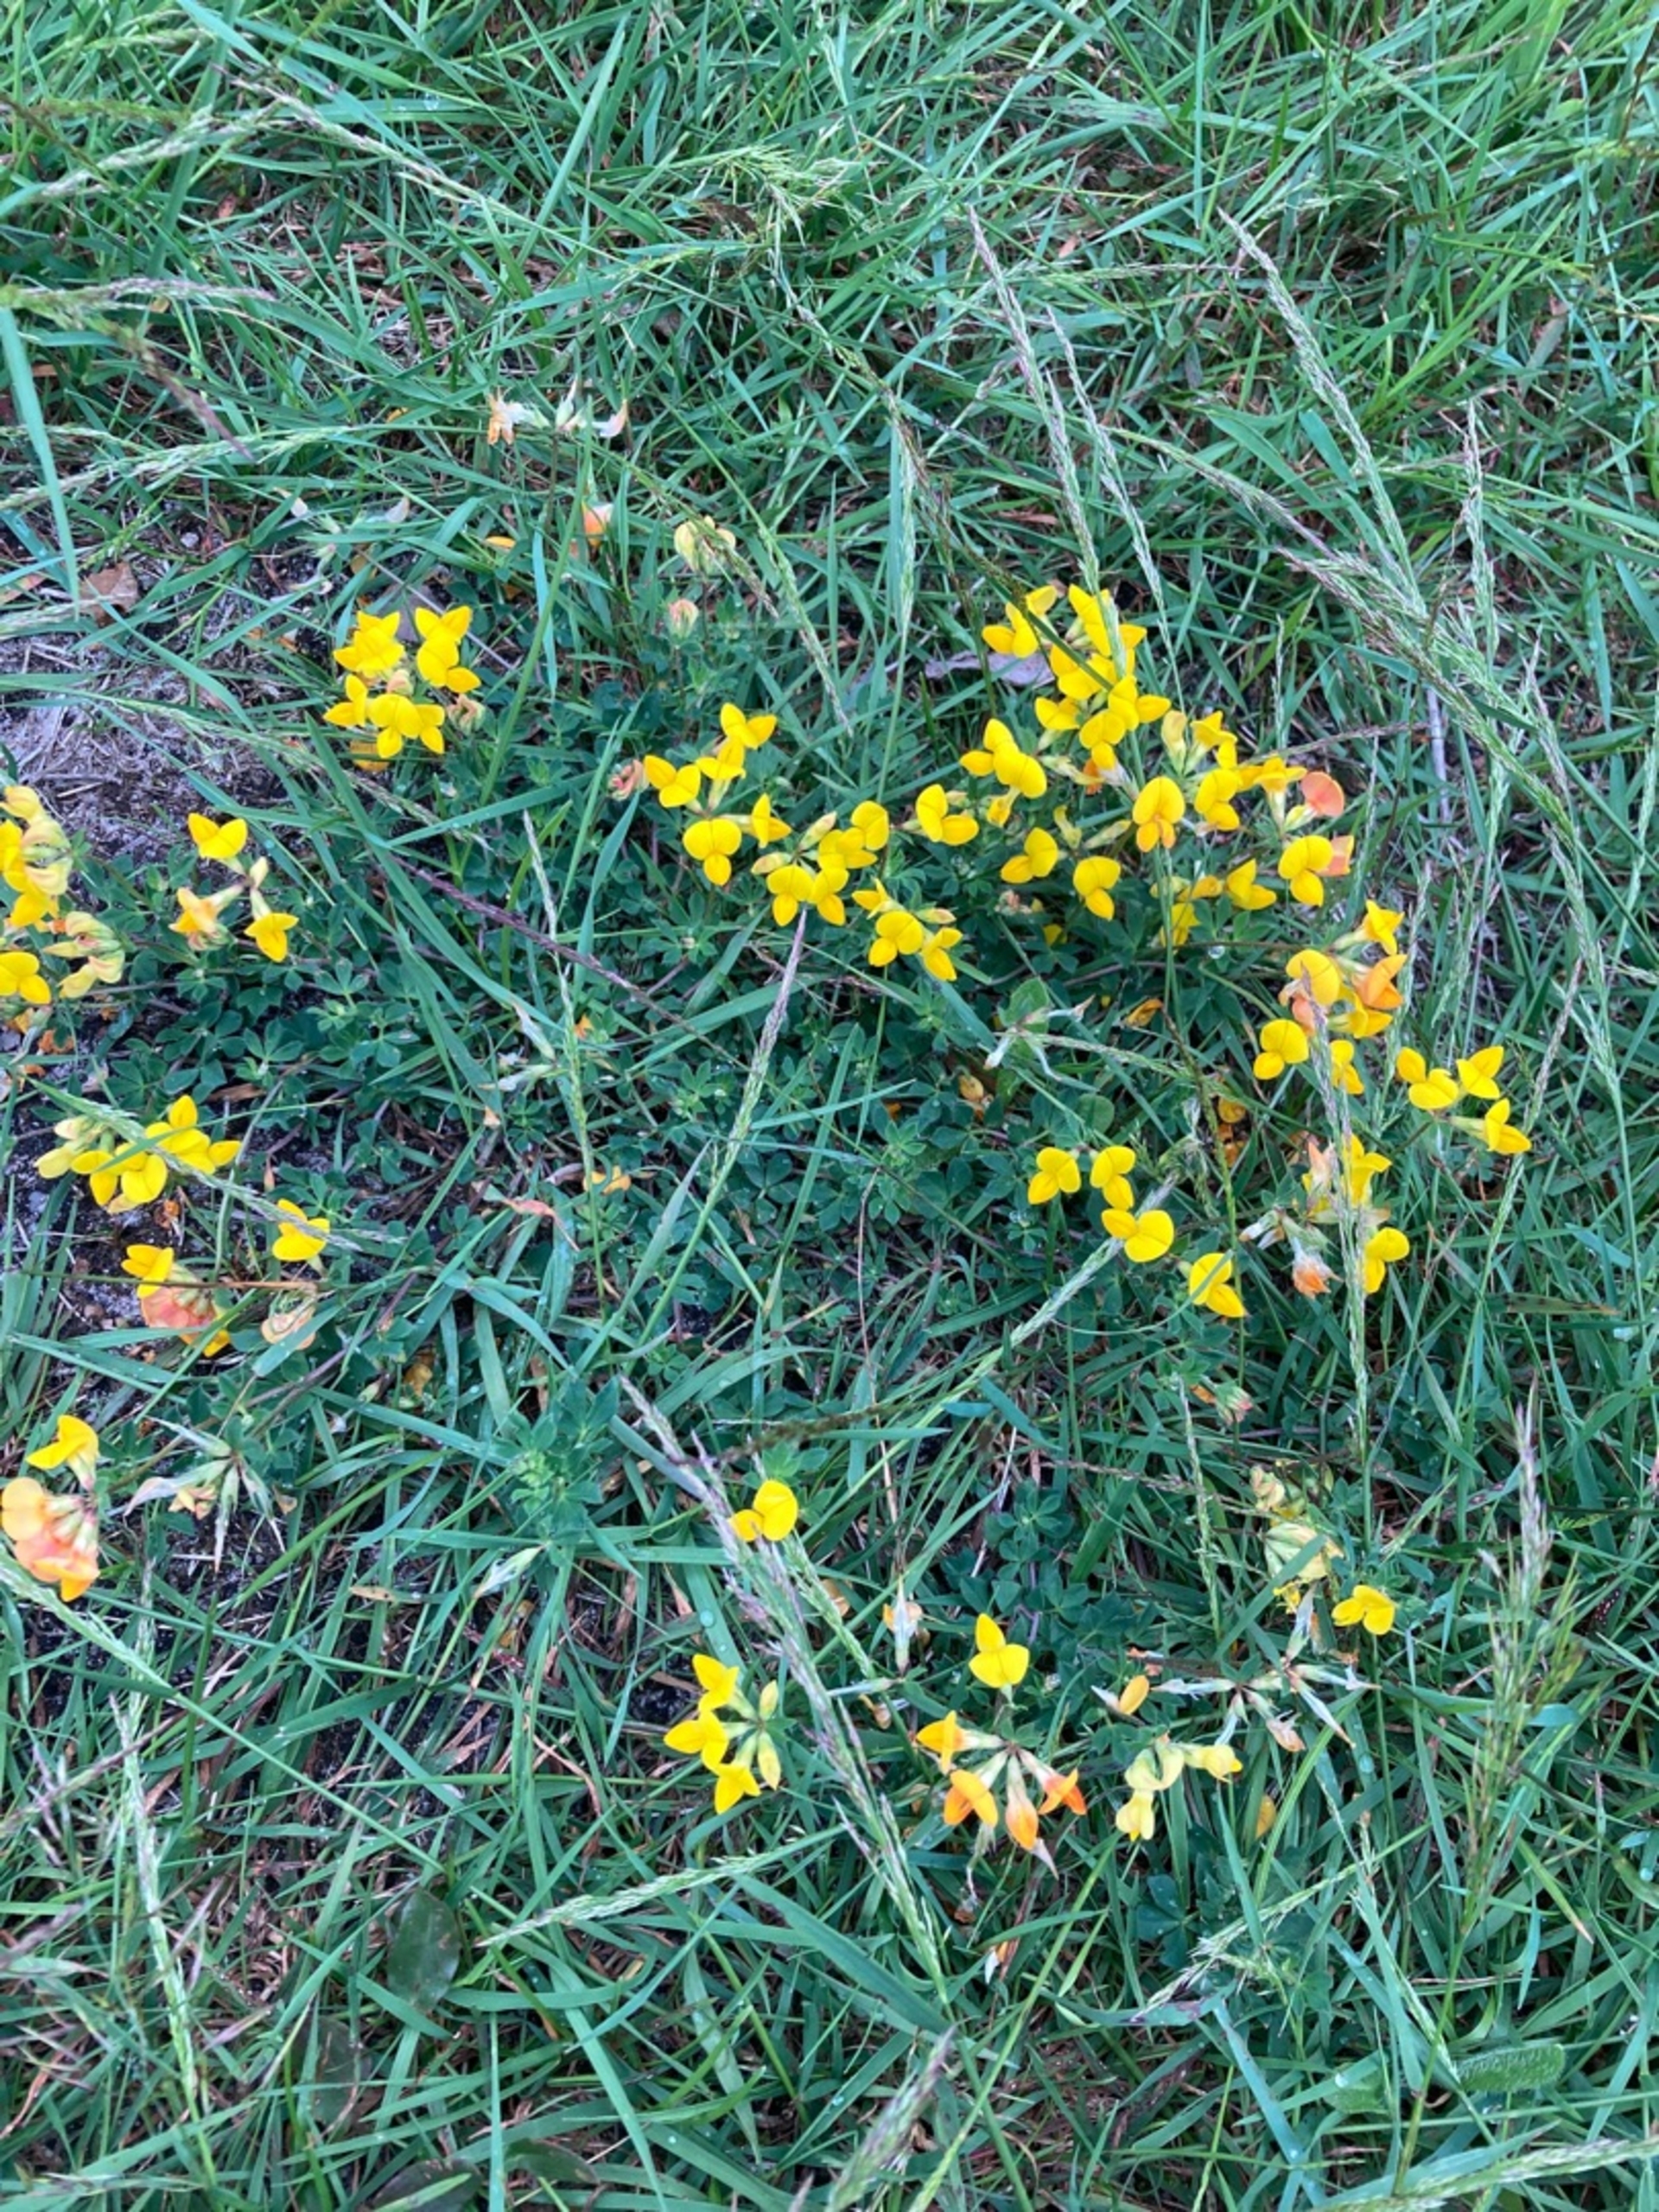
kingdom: Plantae
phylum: Tracheophyta
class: Magnoliopsida
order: Fabales
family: Fabaceae
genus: Lotus
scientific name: Lotus corniculatus
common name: Almindelig kællingetand
